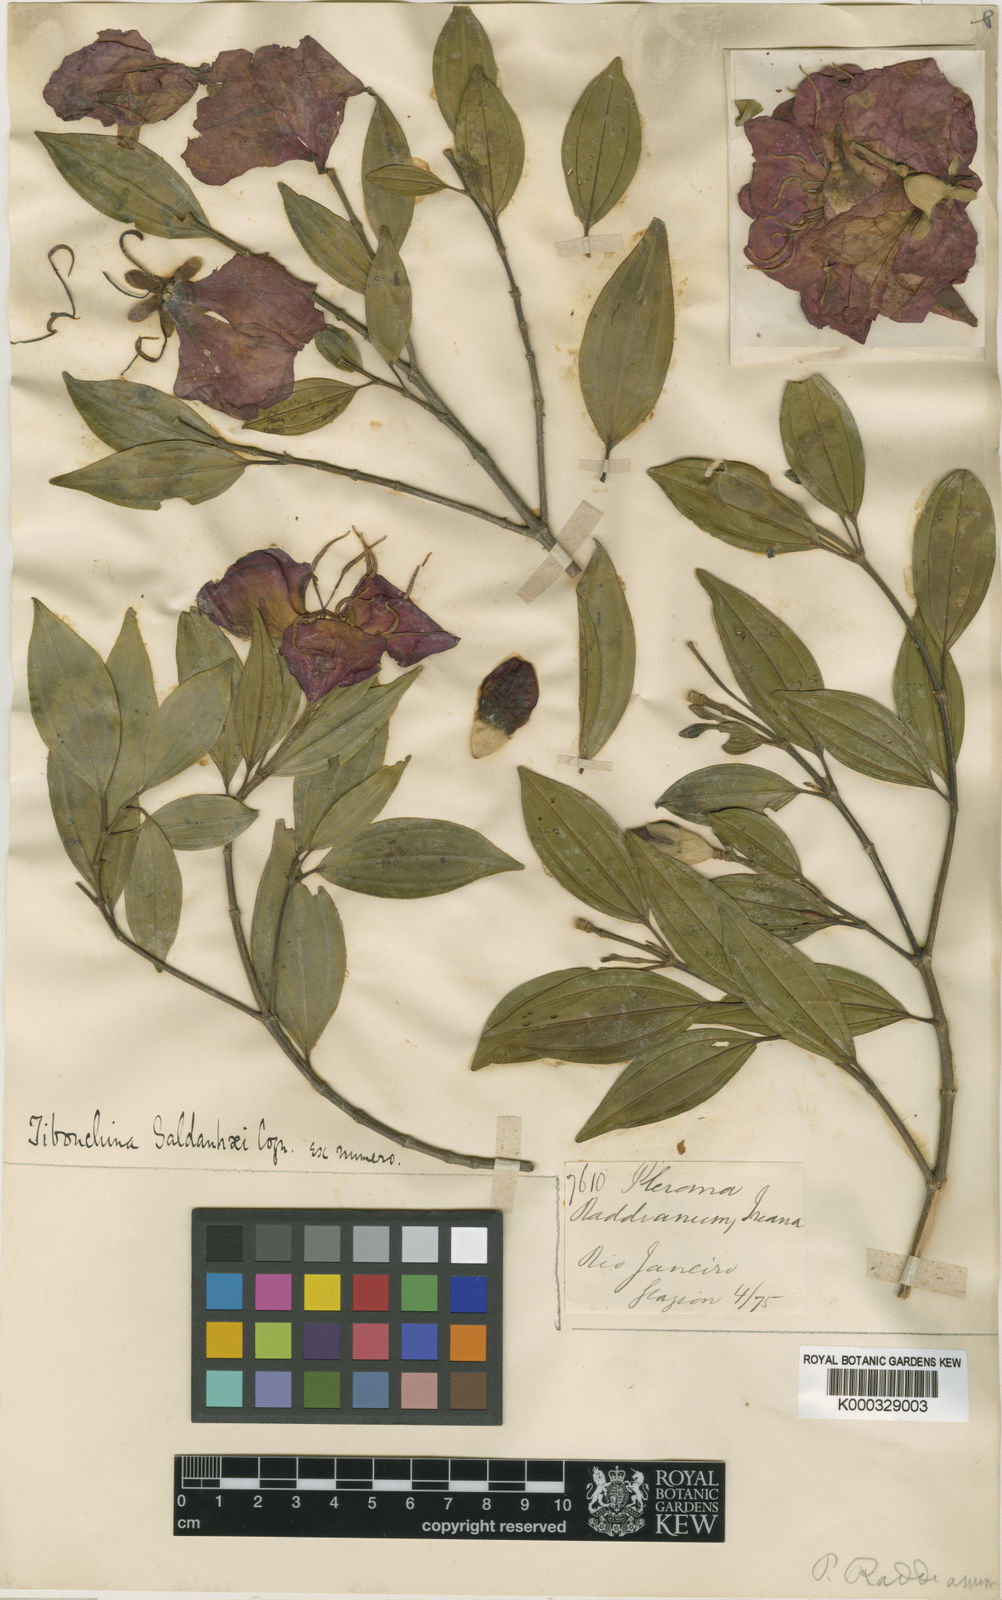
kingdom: Plantae
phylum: Tracheophyta
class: Magnoliopsida
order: Myrtales
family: Melastomataceae
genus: Pleroma
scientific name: Pleroma raddianum
